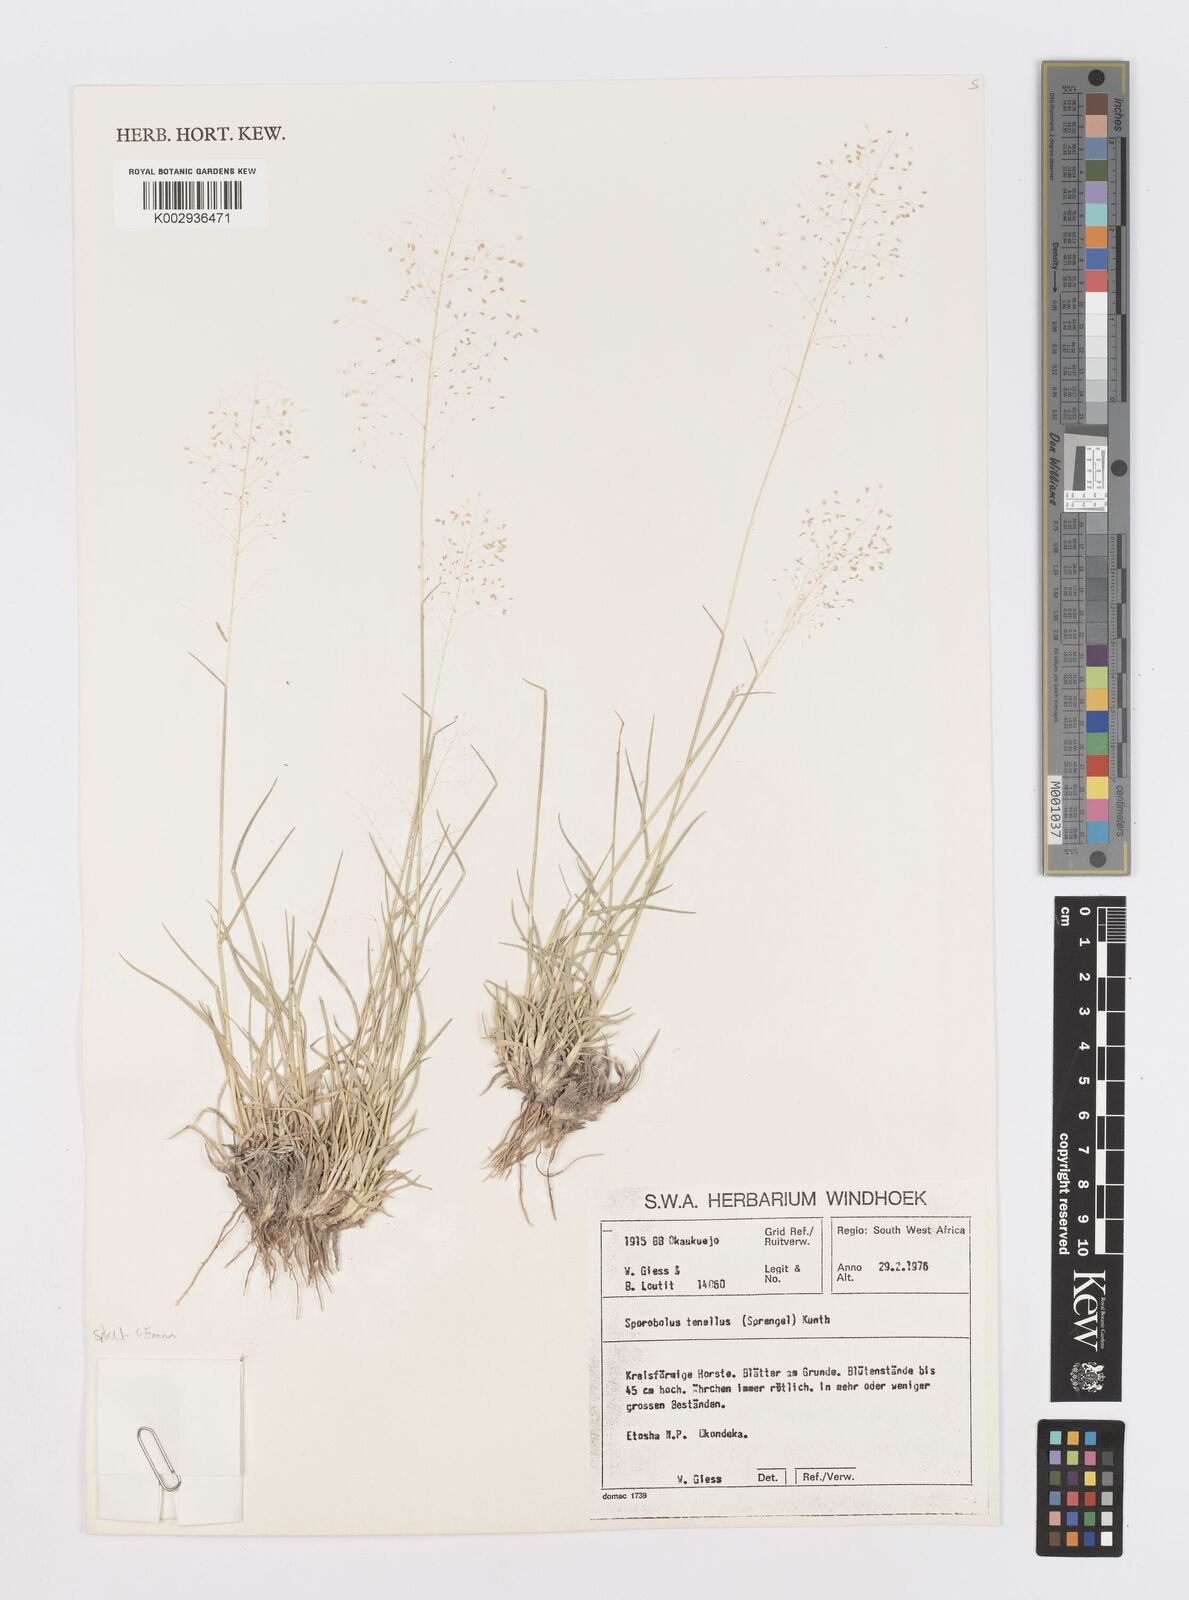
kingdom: Plantae
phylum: Tracheophyta
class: Liliopsida
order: Poales
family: Poaceae
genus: Sporobolus
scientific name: Sporobolus acinifolius
